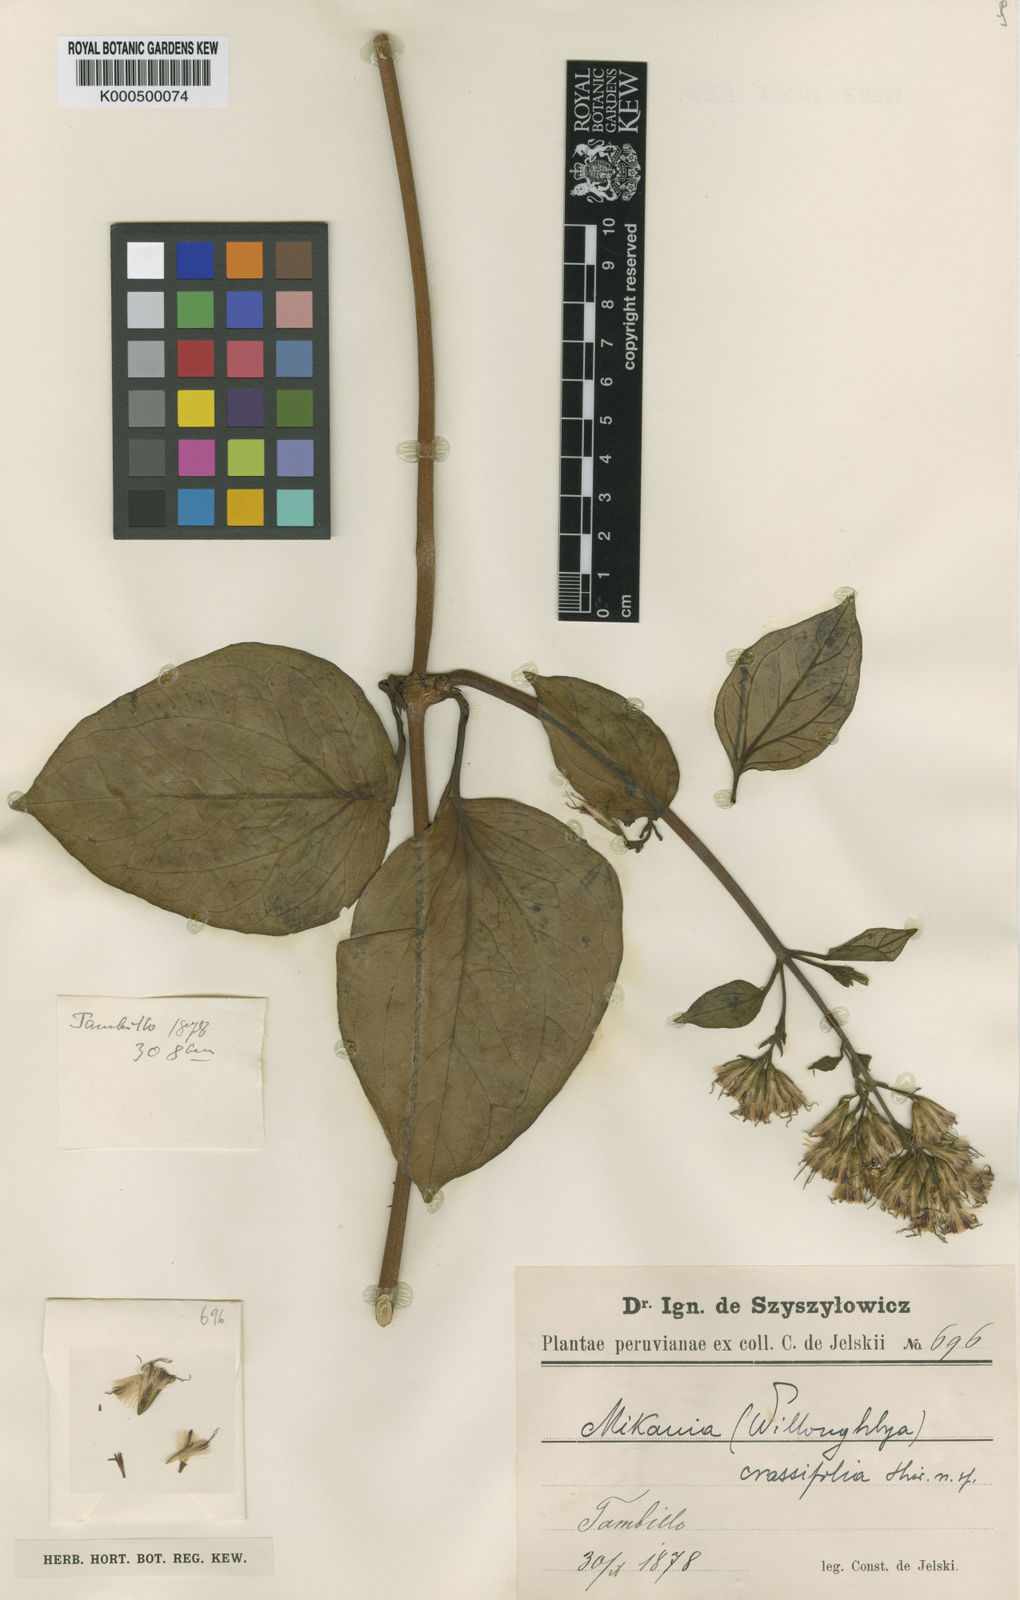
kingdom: Plantae
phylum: Tracheophyta
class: Magnoliopsida
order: Asterales
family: Asteraceae
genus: Mikania
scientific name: Mikania crassifolia
